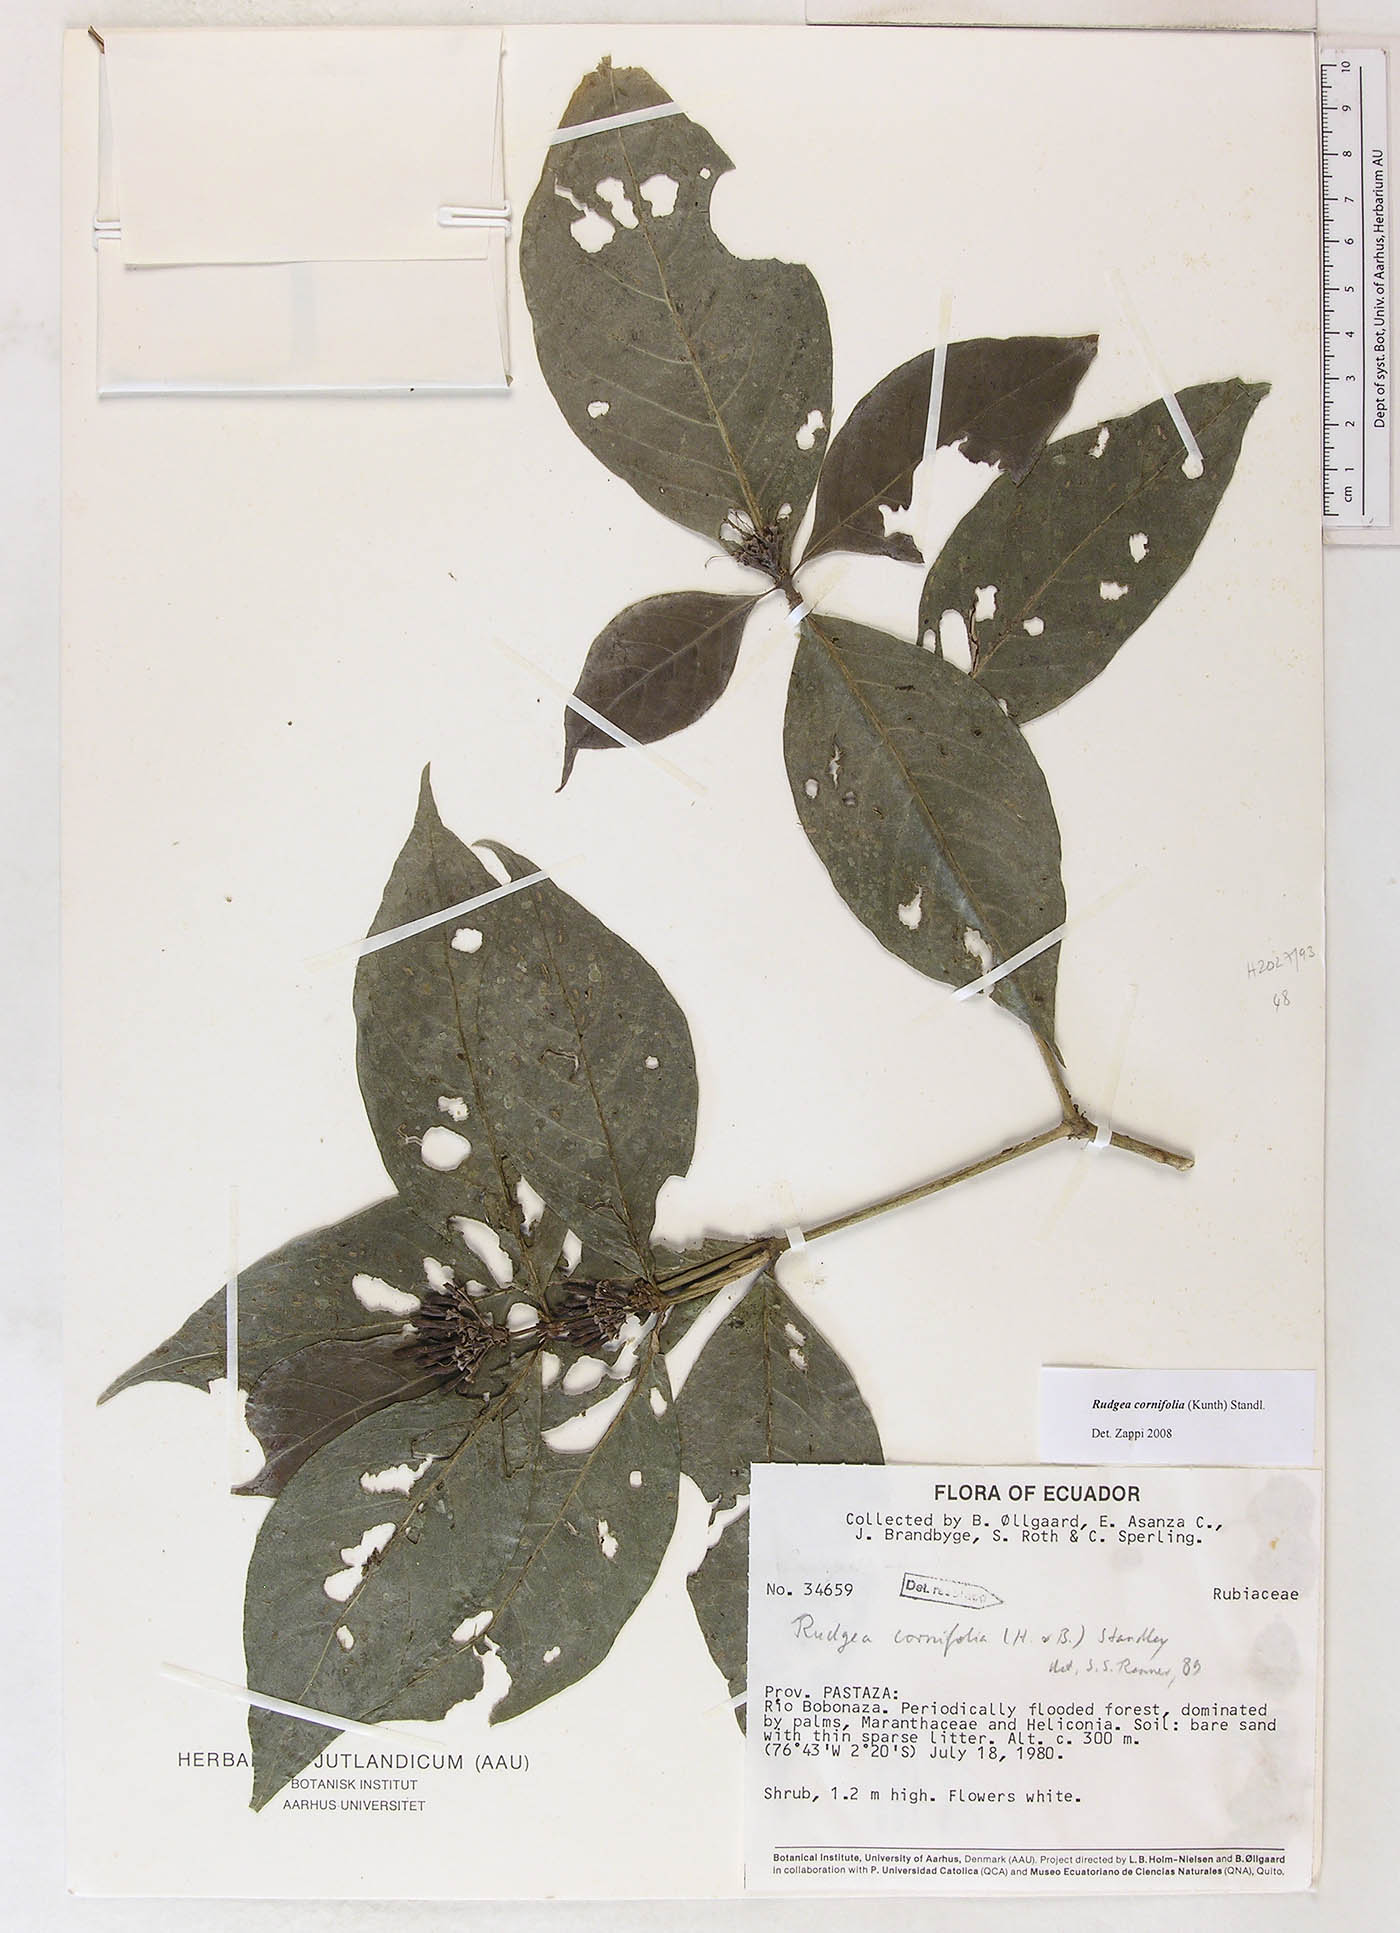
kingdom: Plantae
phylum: Tracheophyta
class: Magnoliopsida
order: Gentianales
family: Rubiaceae
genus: Rudgea
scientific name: Rudgea cornifolia
